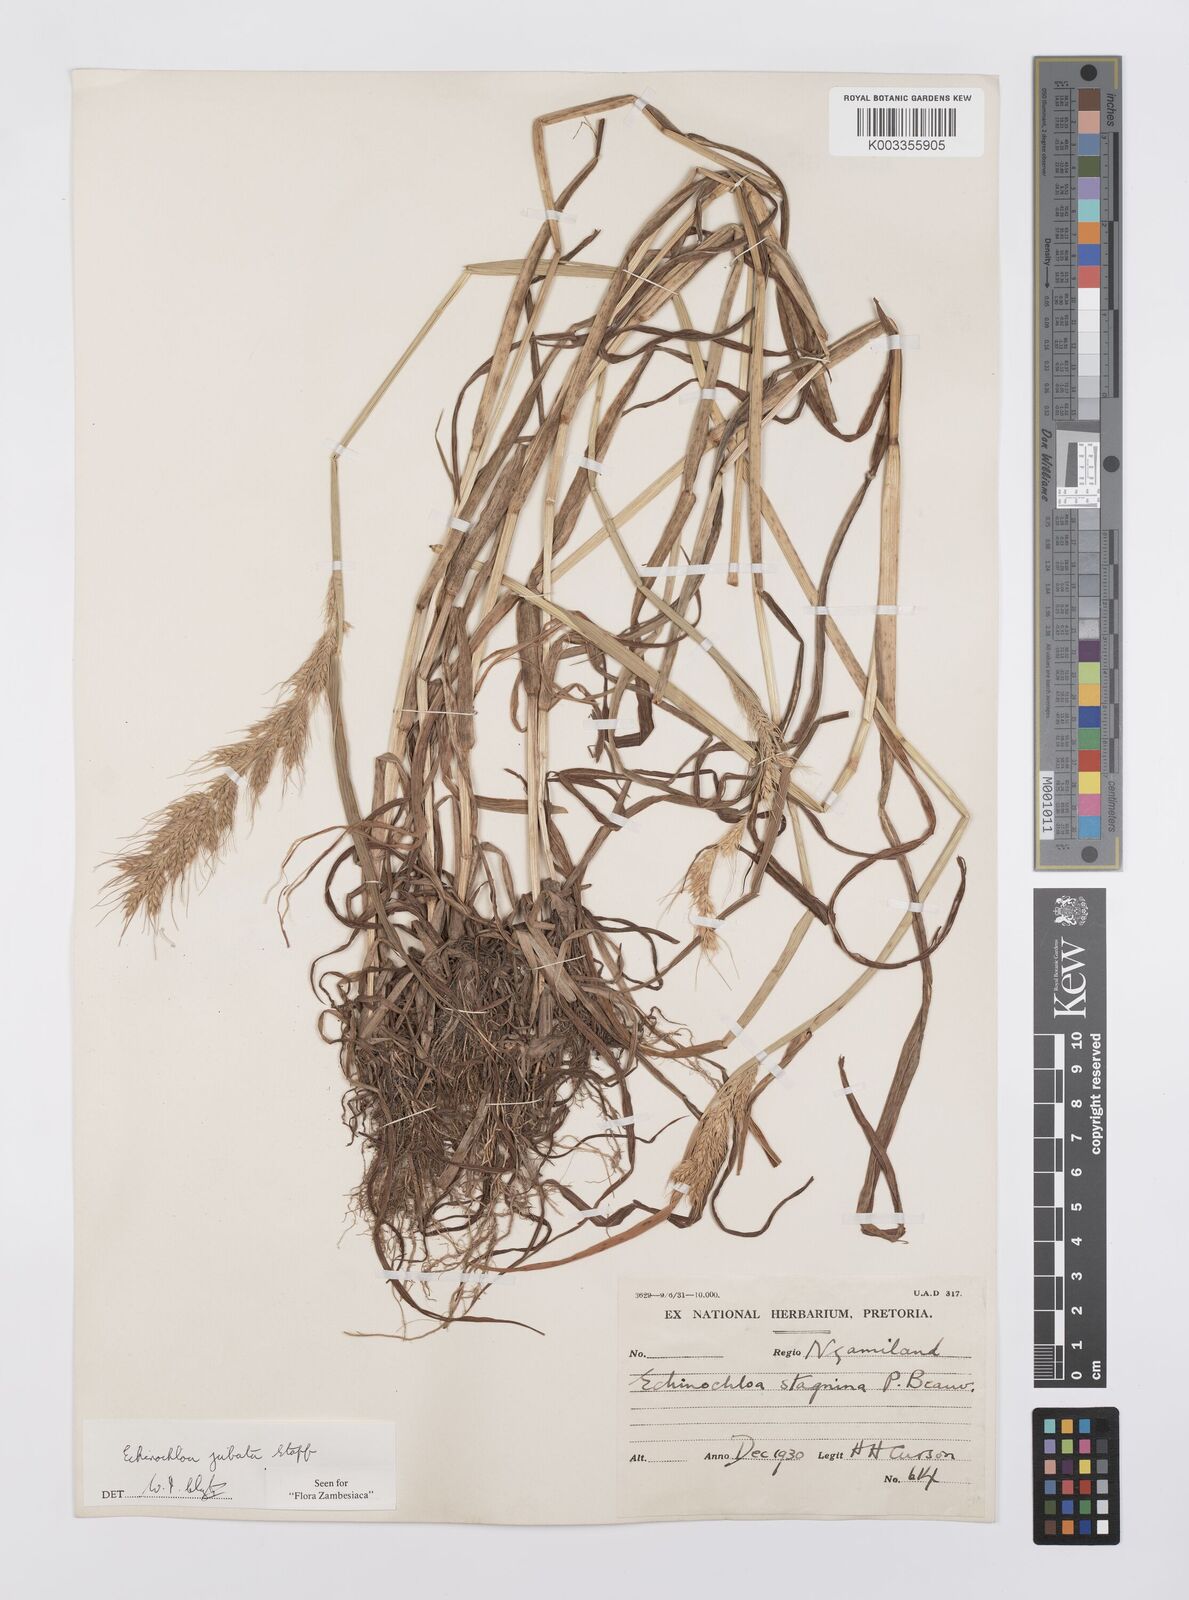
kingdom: Plantae
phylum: Tracheophyta
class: Liliopsida
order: Poales
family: Poaceae
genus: Echinochloa
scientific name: Echinochloa jubata
